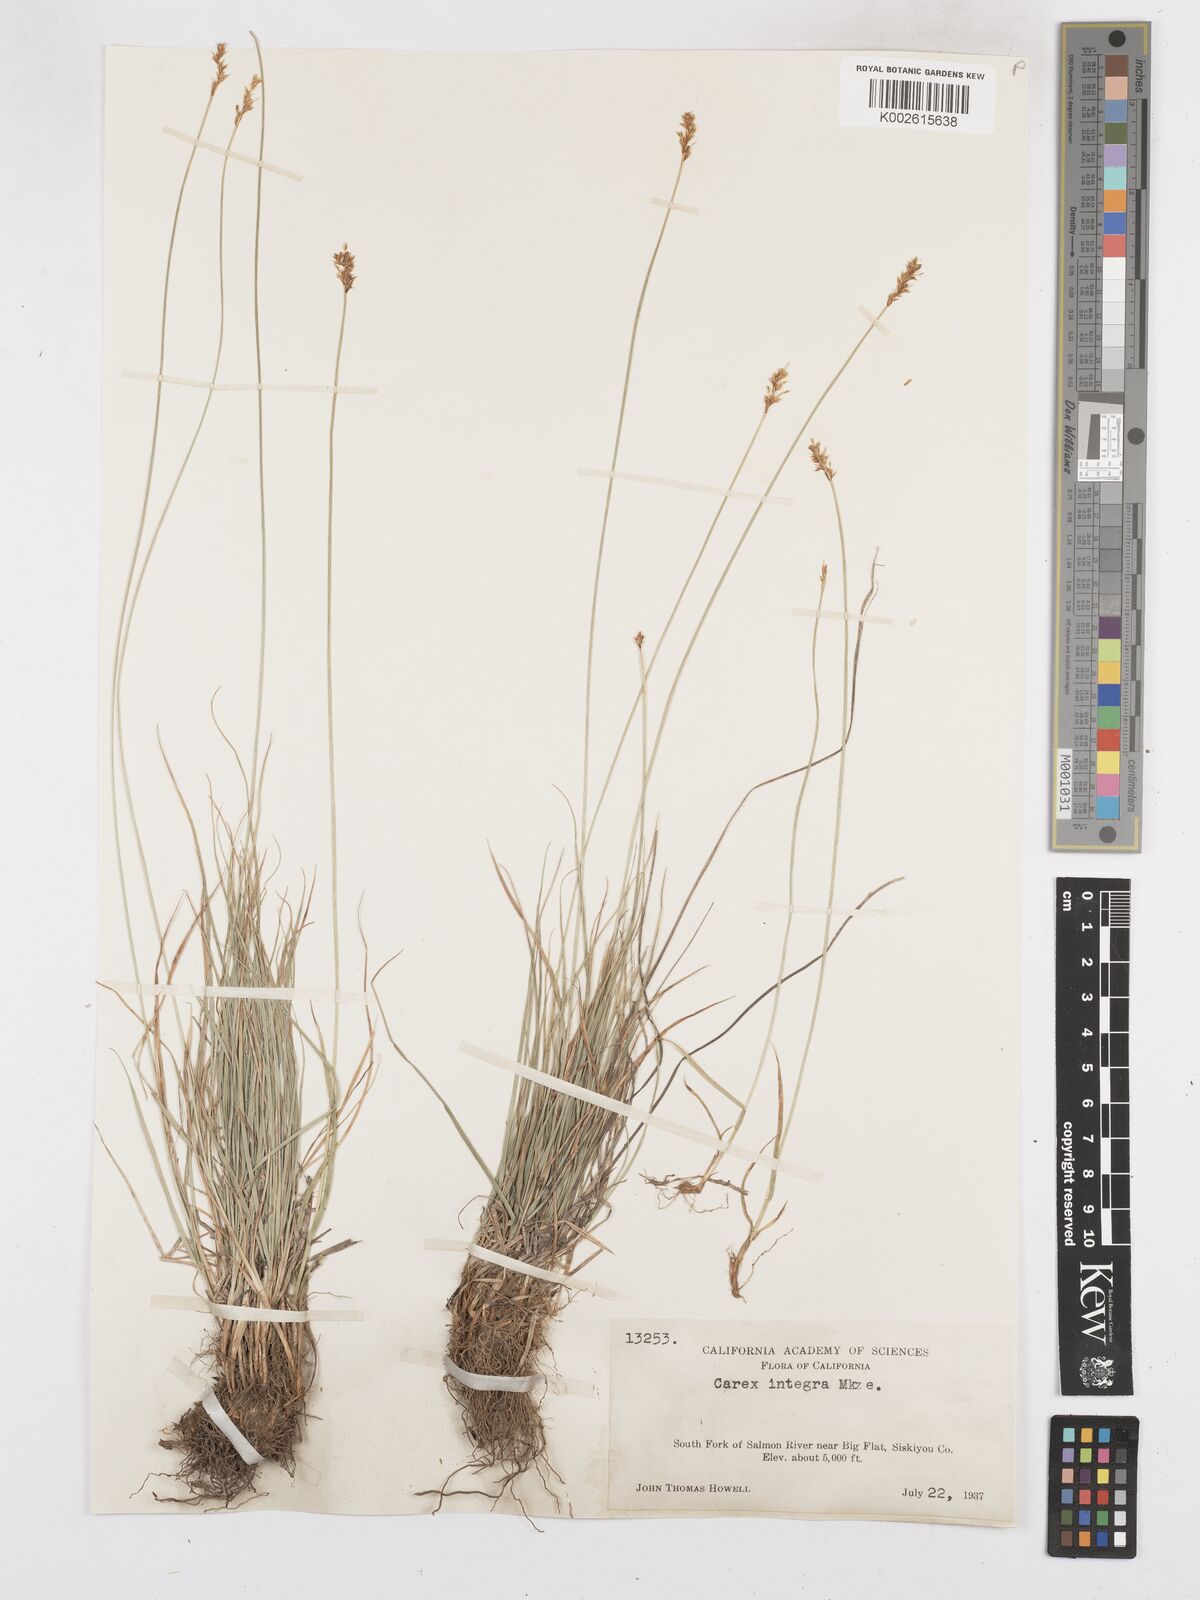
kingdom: Plantae
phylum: Tracheophyta
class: Liliopsida
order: Poales
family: Cyperaceae
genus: Carex
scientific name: Carex integra
